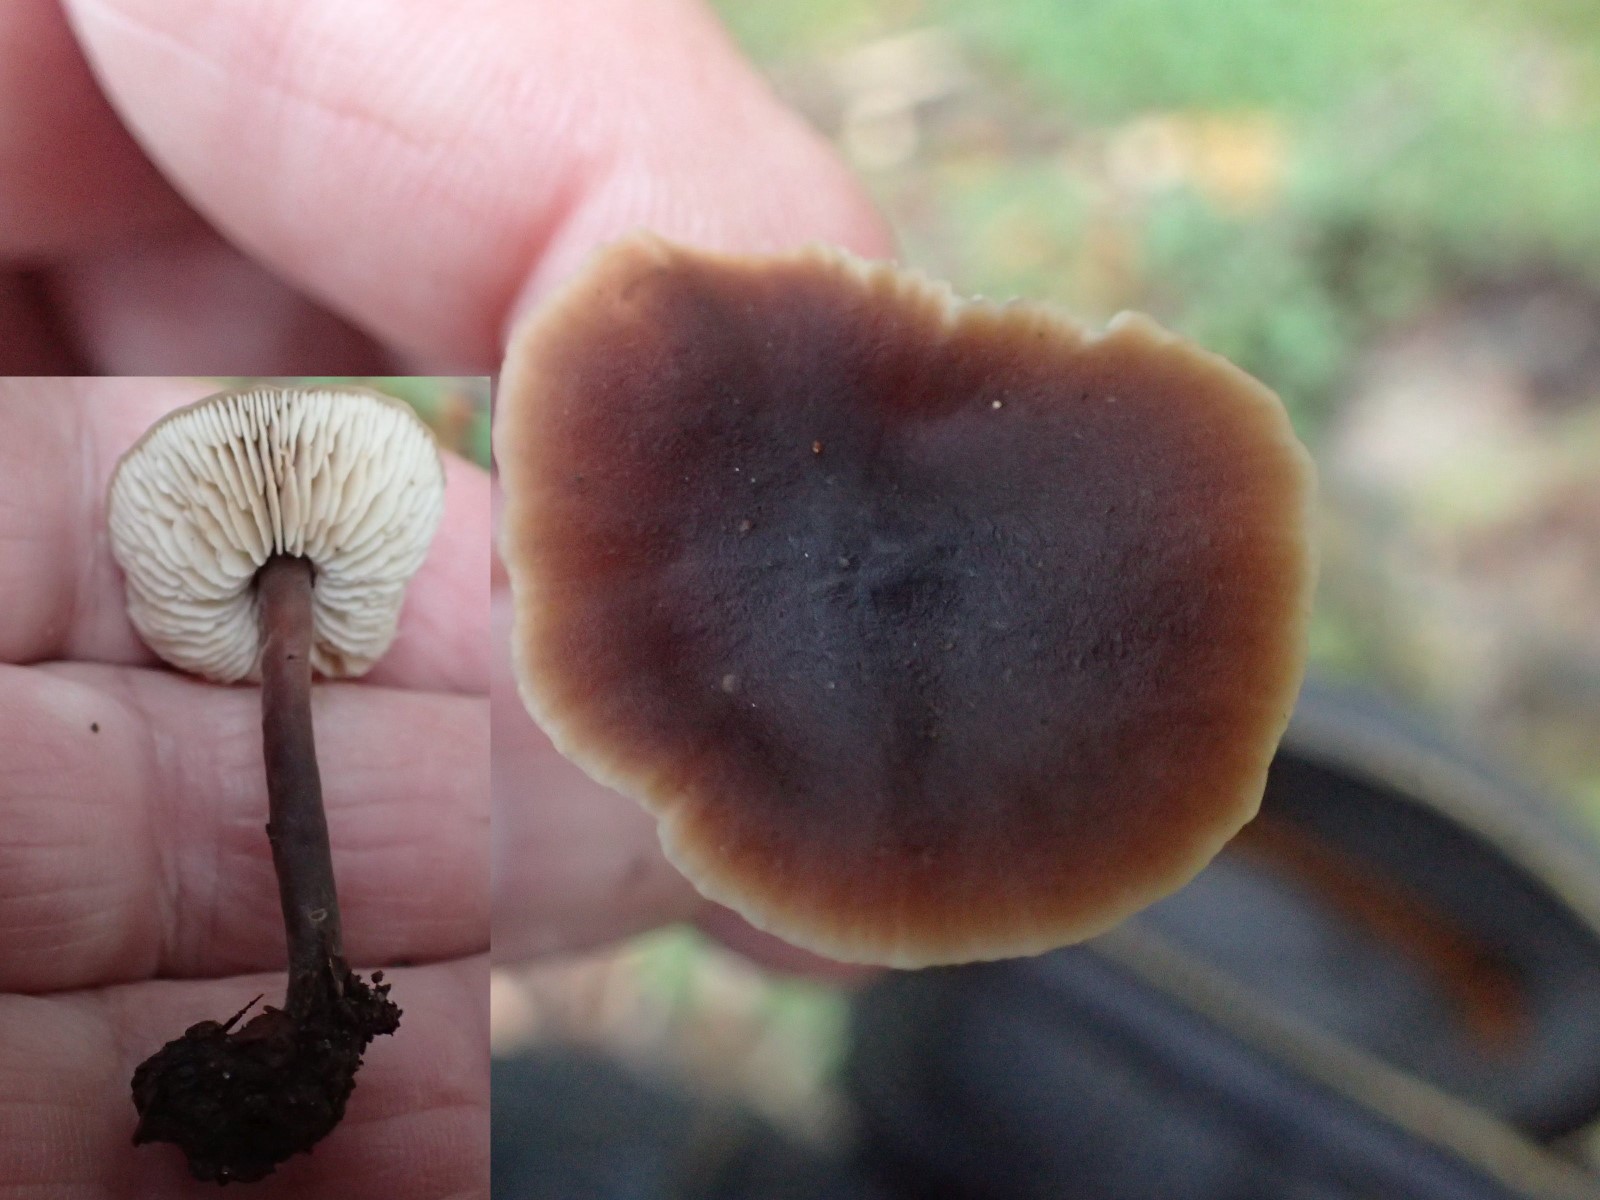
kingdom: Fungi
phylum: Basidiomycota
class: Agaricomycetes
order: Agaricales
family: Macrocystidiaceae
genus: Macrocystidia
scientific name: Macrocystidia cucumis
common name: agurkehat
